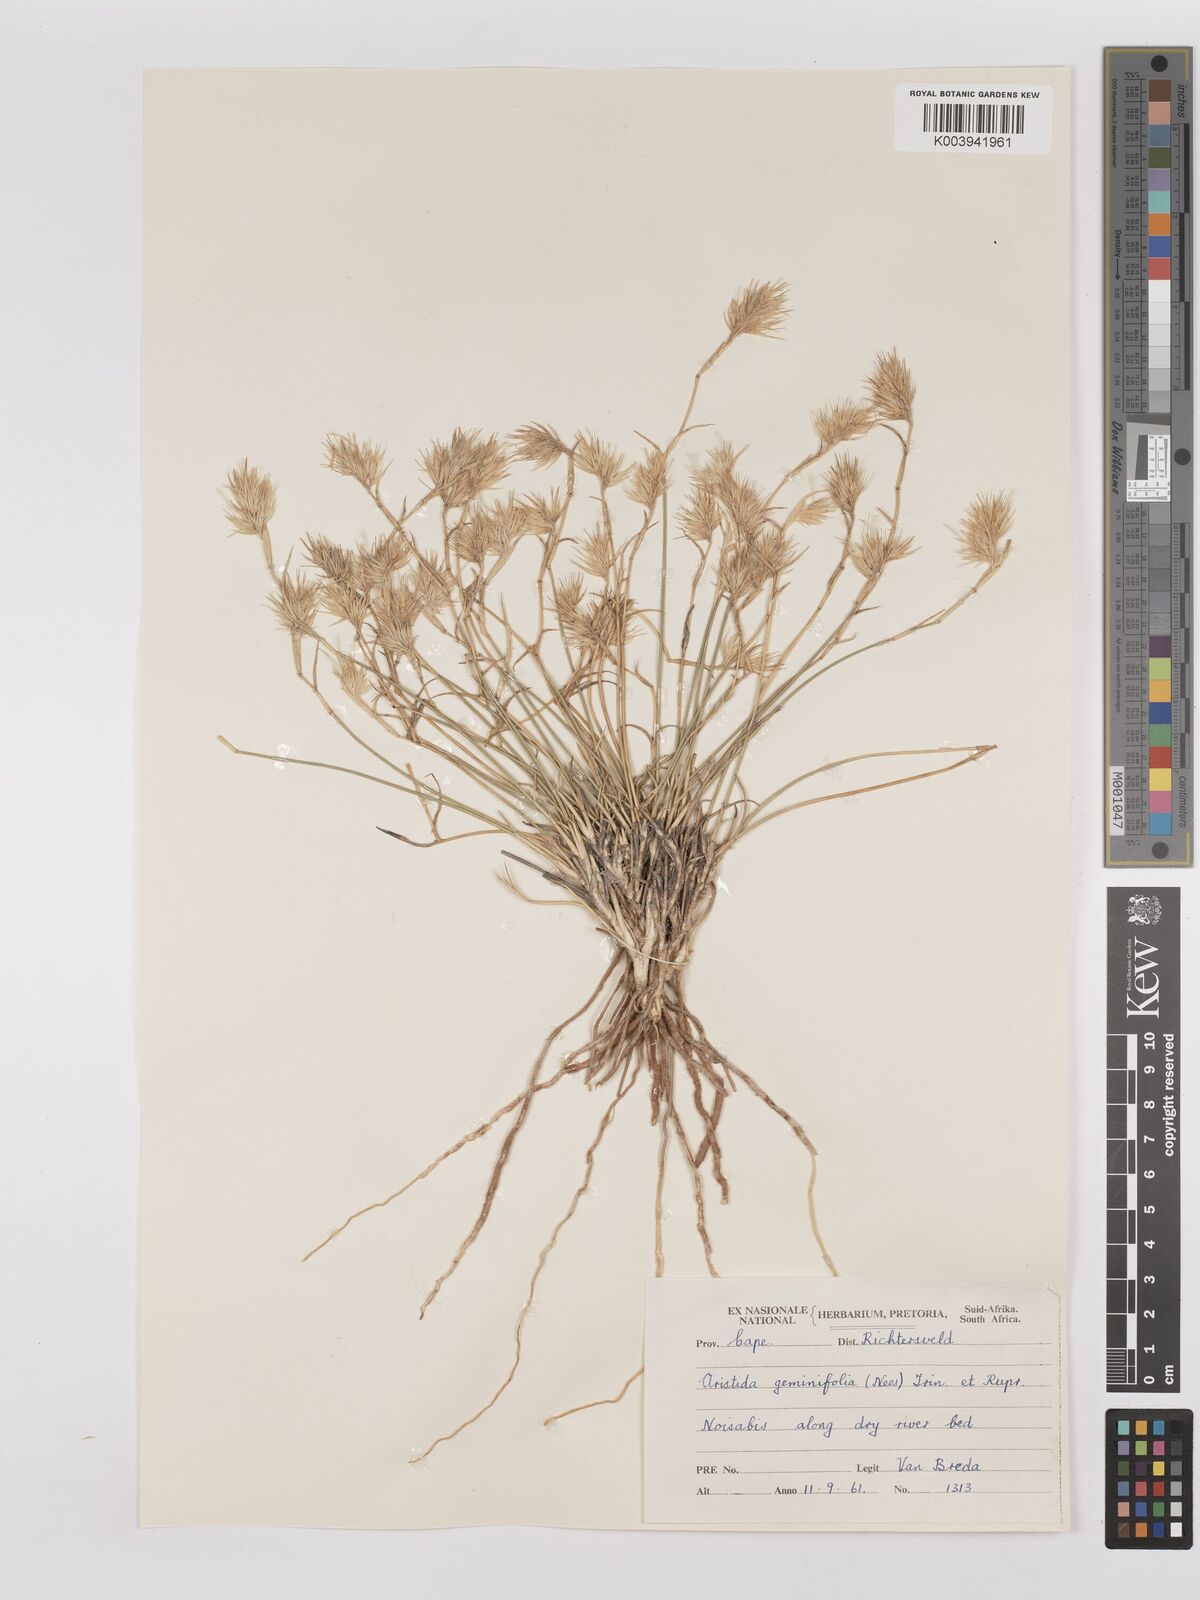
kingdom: Plantae
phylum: Tracheophyta
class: Liliopsida
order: Poales
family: Poaceae
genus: Stipagrostis
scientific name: Stipagrostis geminifolia
